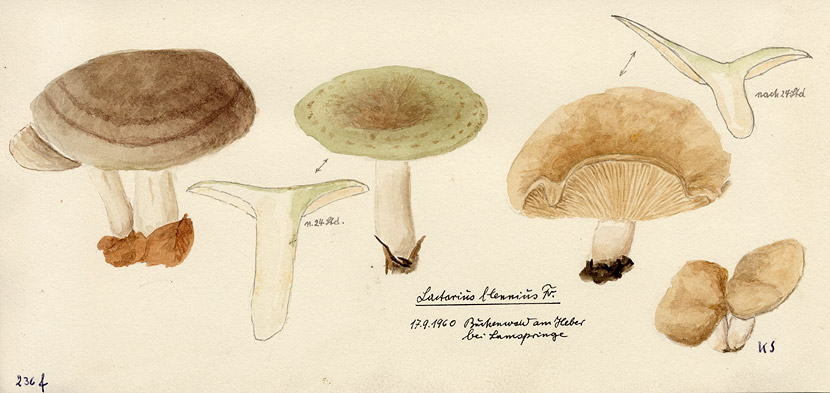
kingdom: Fungi
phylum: Basidiomycota
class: Agaricomycetes
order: Russulales
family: Russulaceae
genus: Lactarius
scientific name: Lactarius blennius
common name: Beech milkcap
